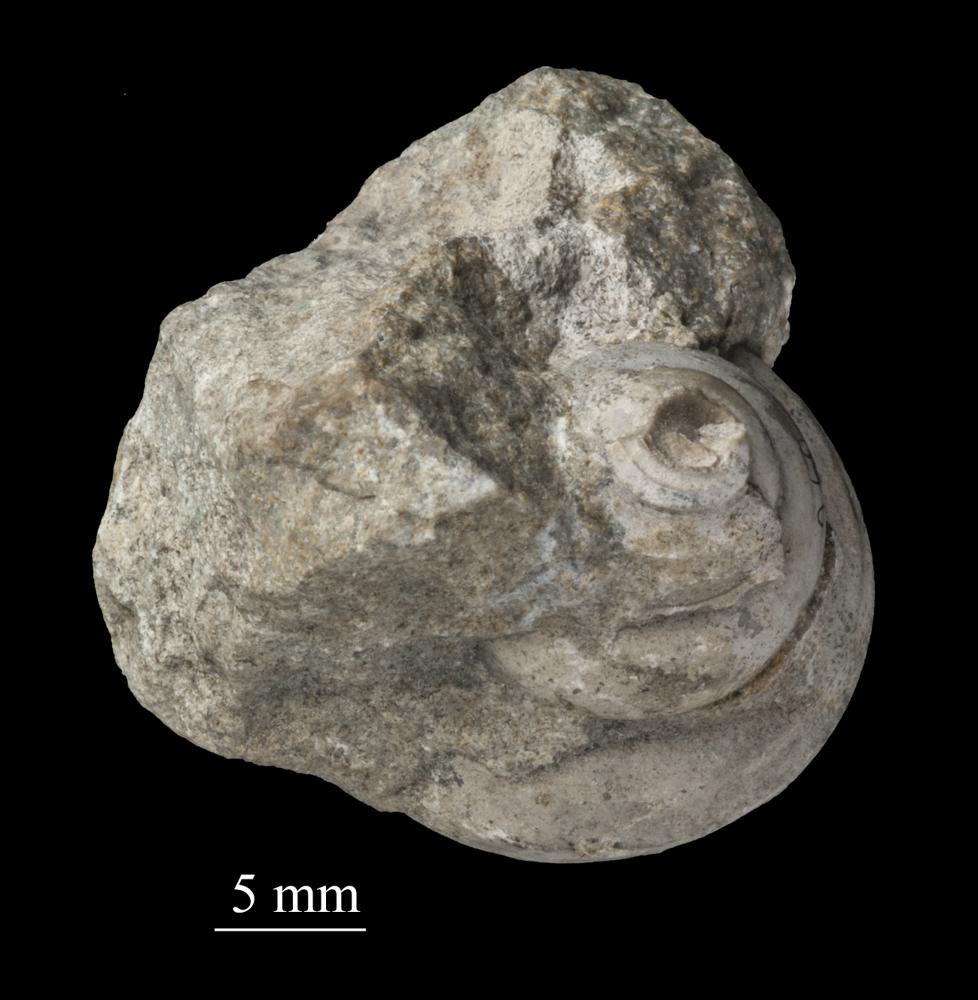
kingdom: Animalia
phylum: Mollusca
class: Gastropoda
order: Trochida
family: Trochidae
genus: Trochus
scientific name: Trochus
